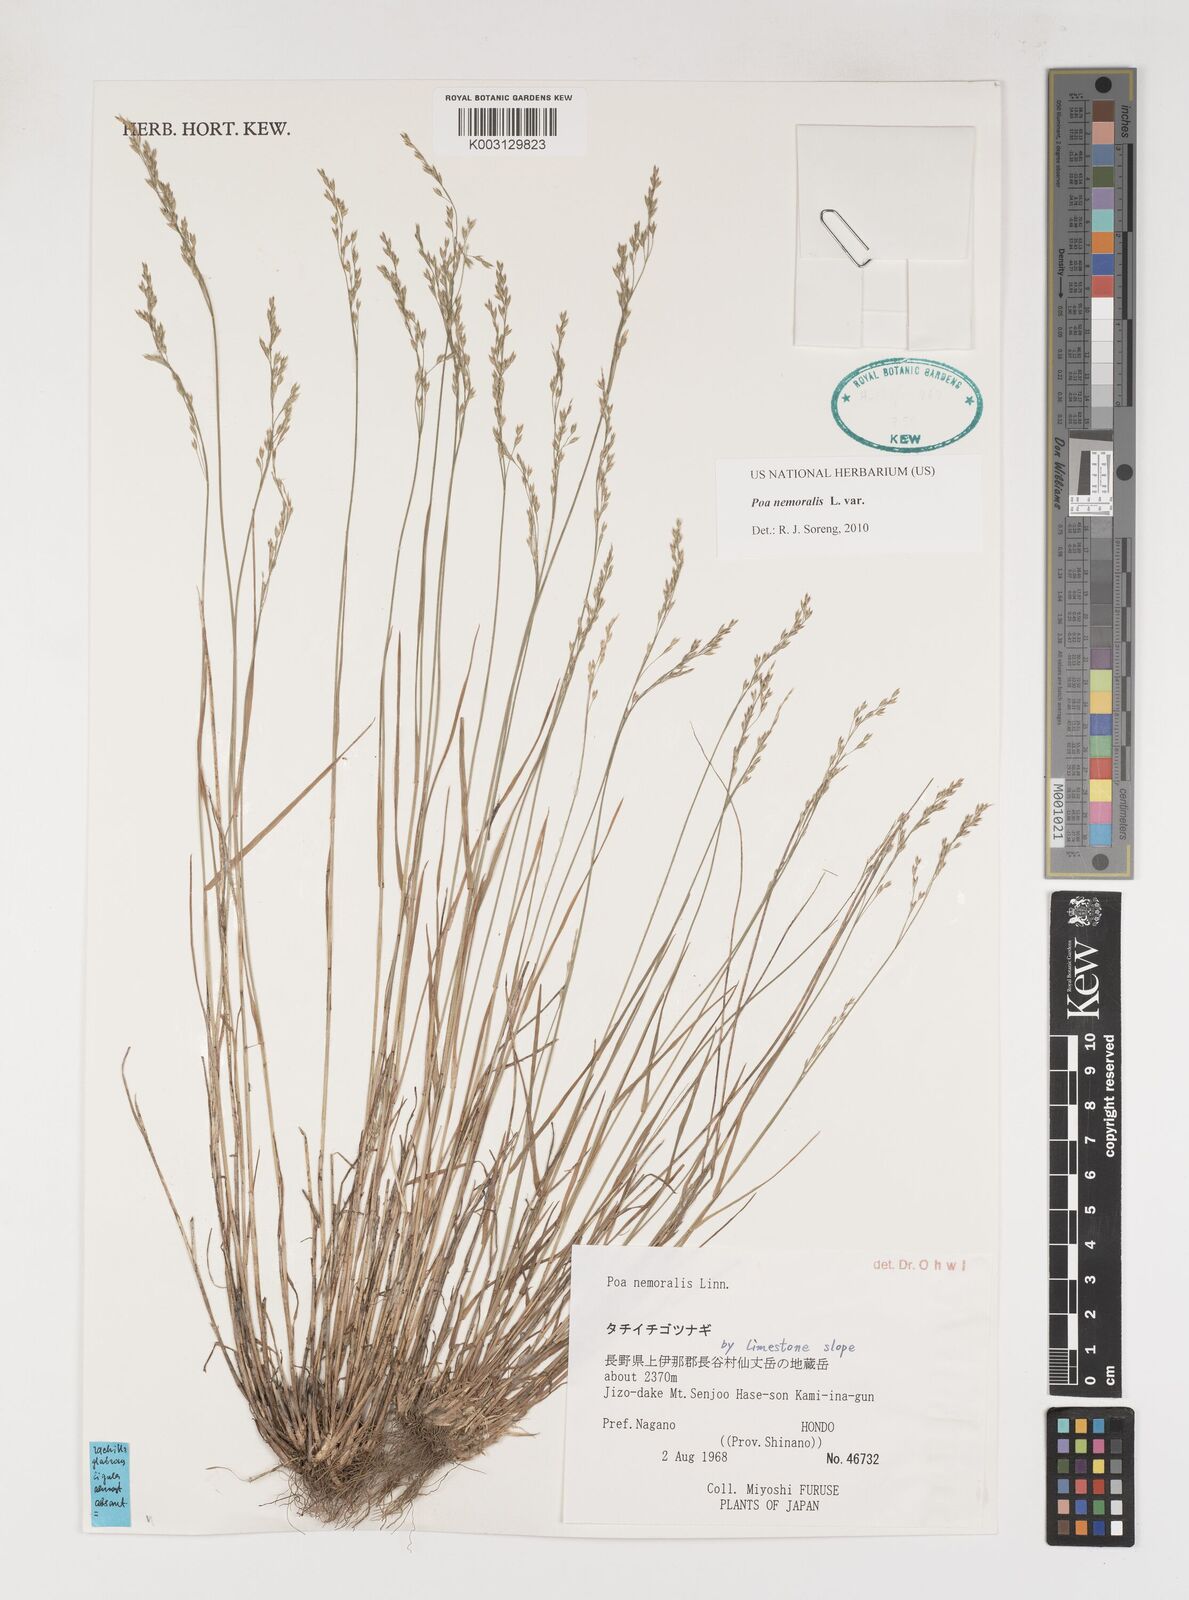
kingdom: Plantae
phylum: Tracheophyta
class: Liliopsida
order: Poales
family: Poaceae
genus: Poa
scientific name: Poa nemoralis
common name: Wood bluegrass
